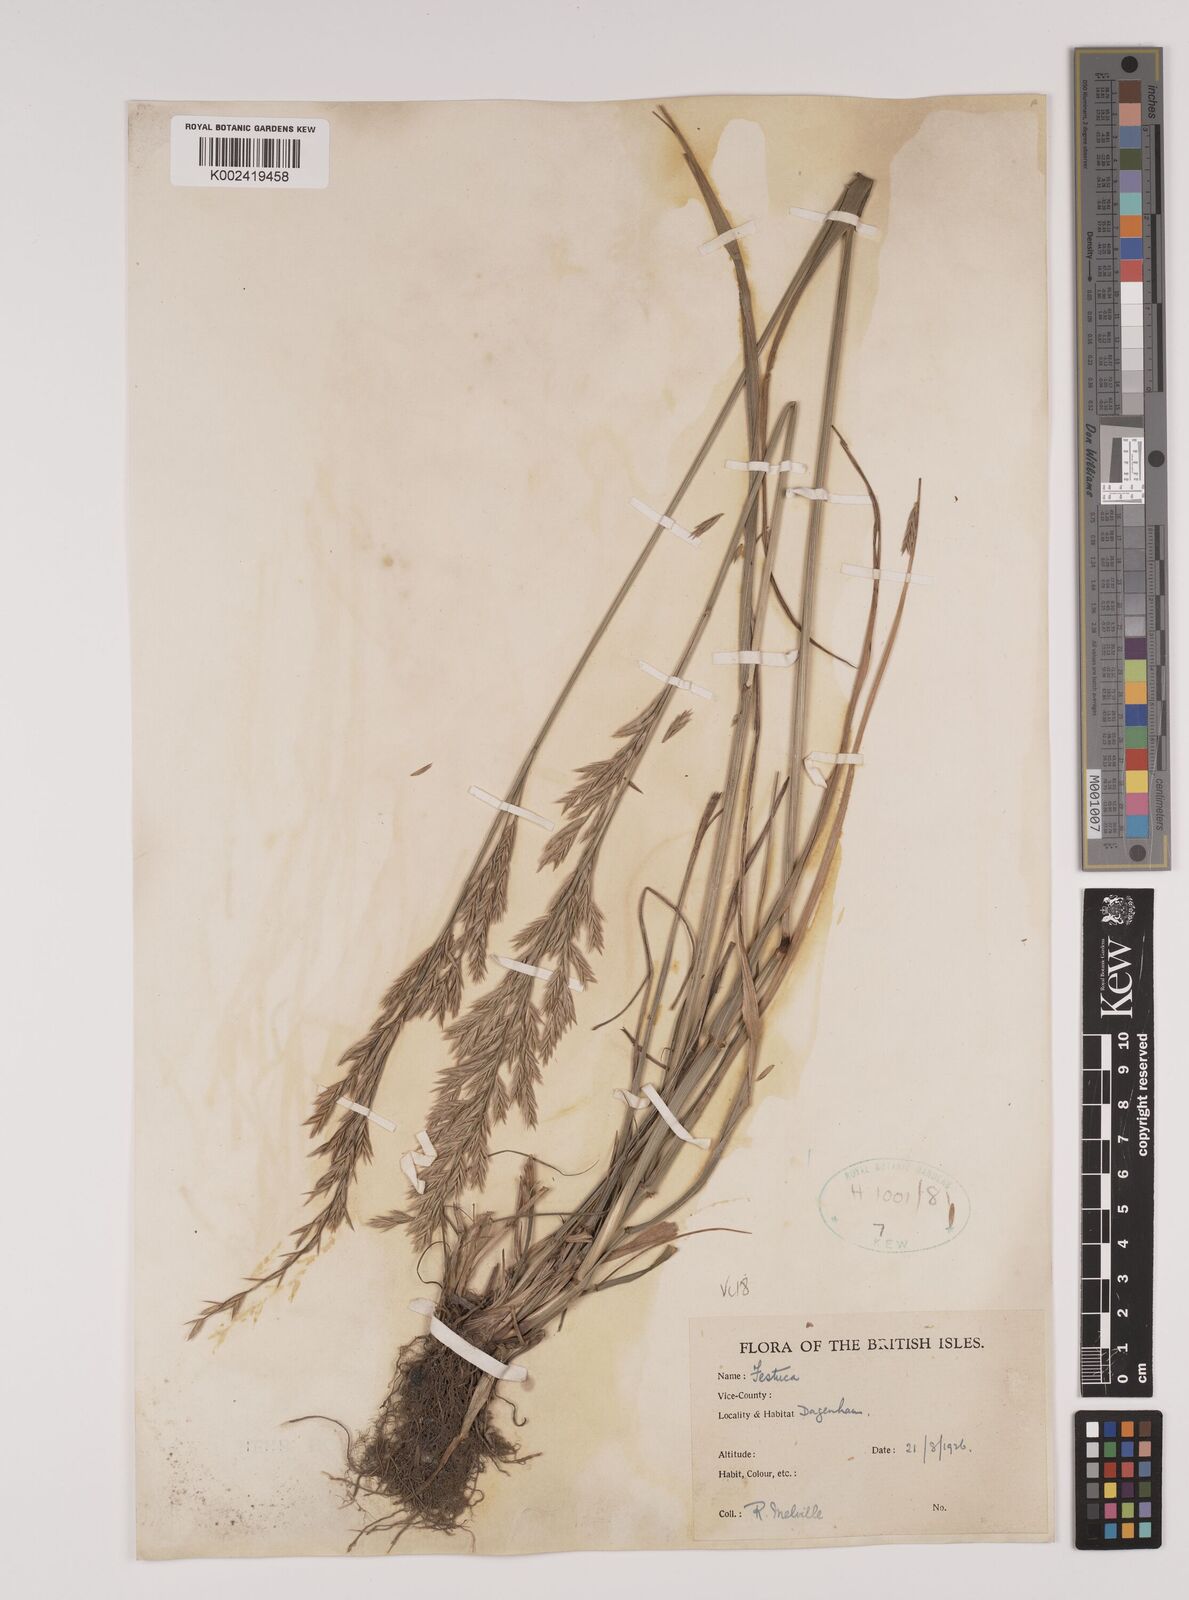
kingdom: Plantae
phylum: Tracheophyta
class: Liliopsida
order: Poales
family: Poaceae
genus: Lolium
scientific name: Lolium pratense
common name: Dover grass
